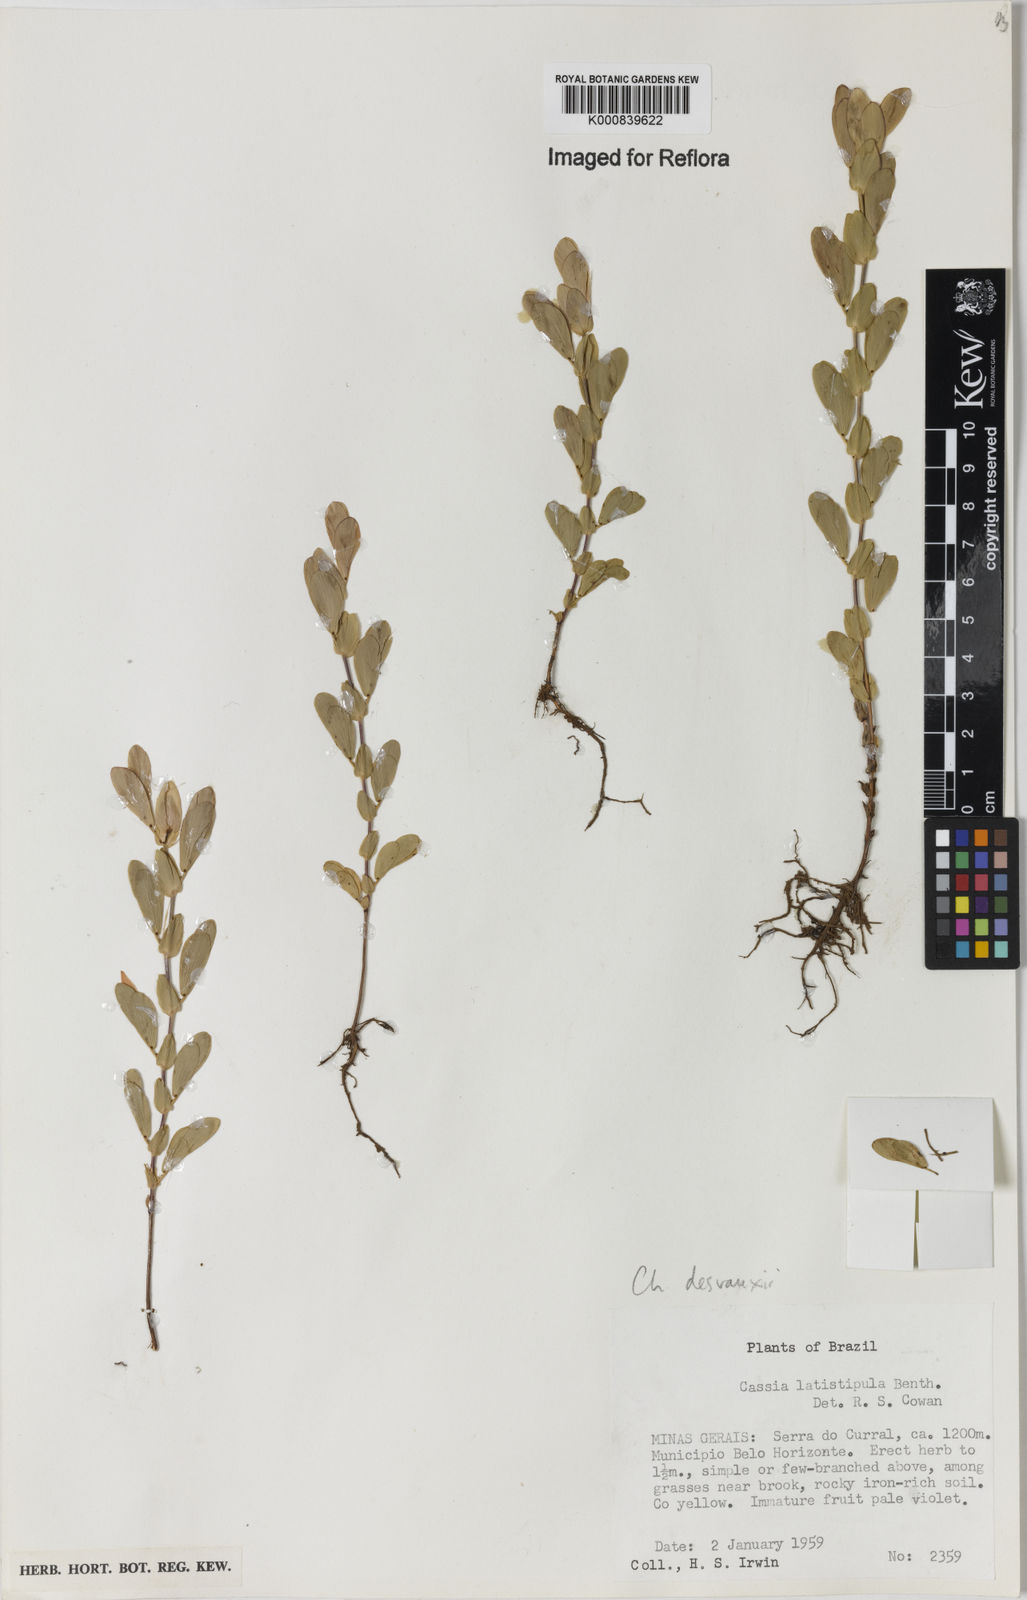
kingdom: Plantae
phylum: Tracheophyta
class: Magnoliopsida
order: Fabales
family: Fabaceae
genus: Chamaecrista
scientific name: Chamaecrista desvauxii
